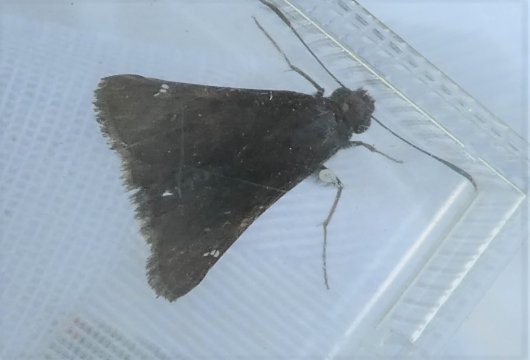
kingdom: Animalia
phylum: Arthropoda
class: Insecta
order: Lepidoptera
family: Hesperiidae
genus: Autochton
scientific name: Autochton
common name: Northern Cloudywing
